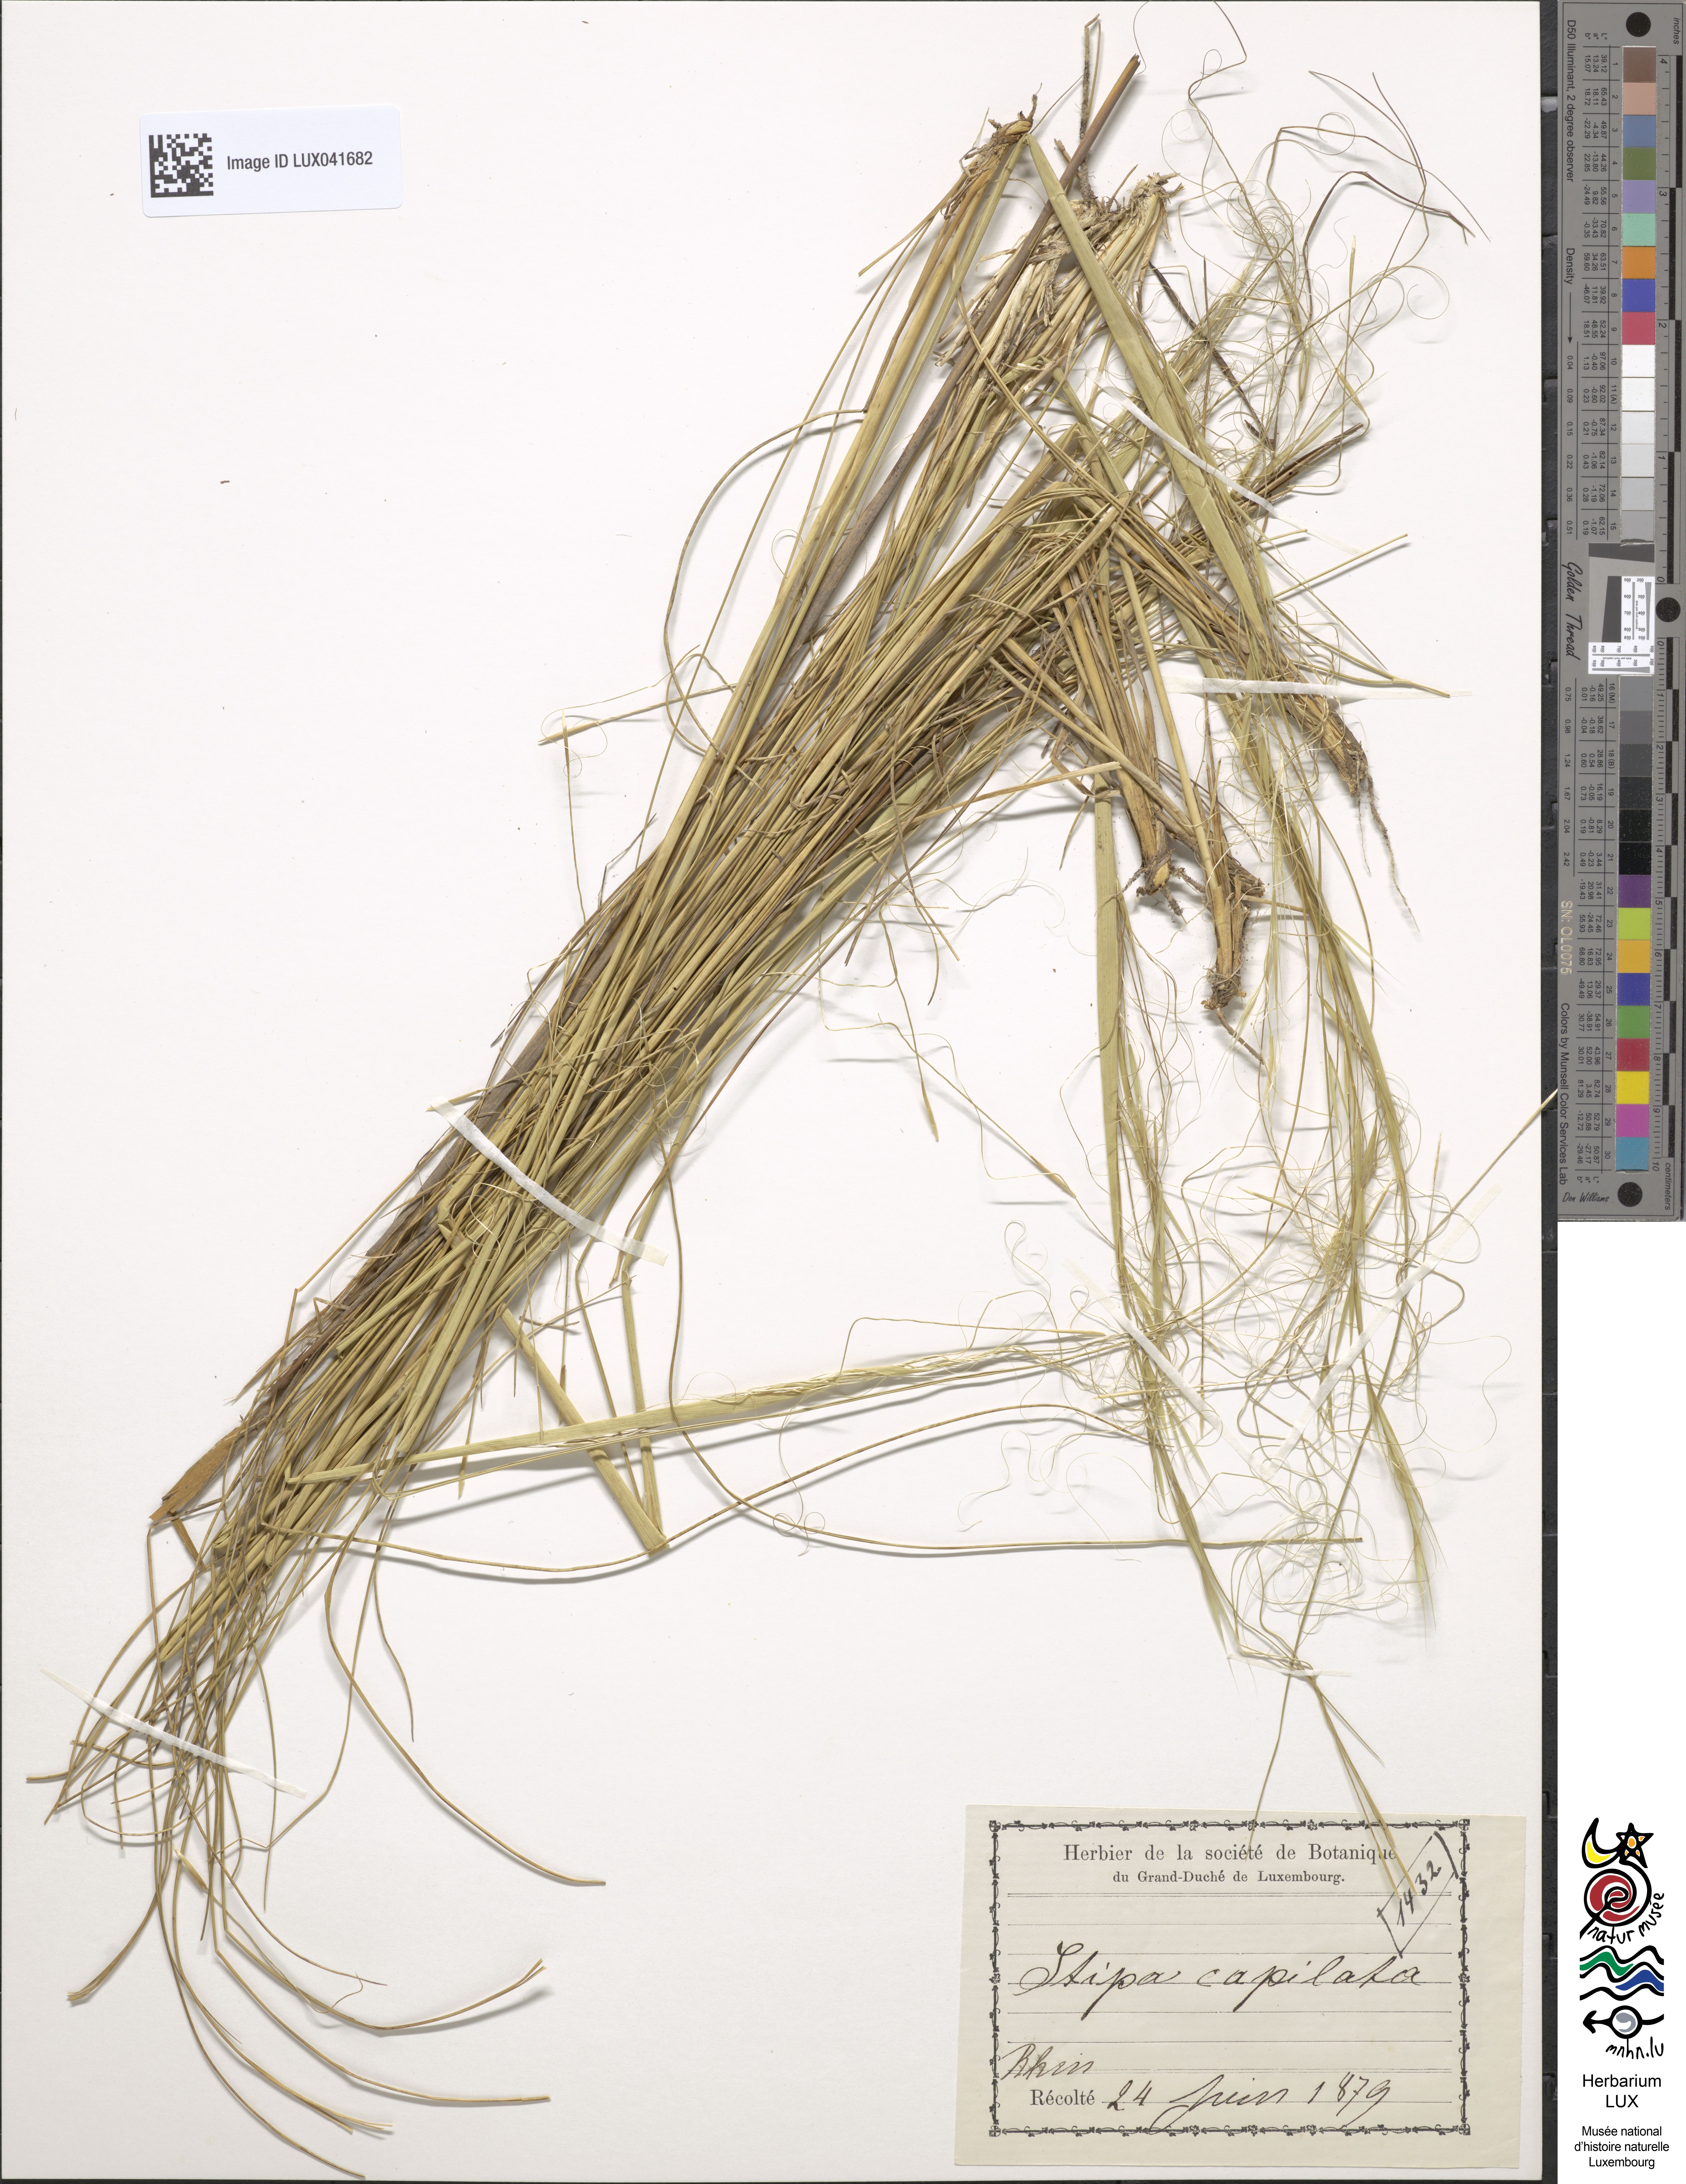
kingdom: Plantae
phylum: Tracheophyta
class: Liliopsida
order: Poales
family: Poaceae
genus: Stipa
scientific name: Stipa capillata
